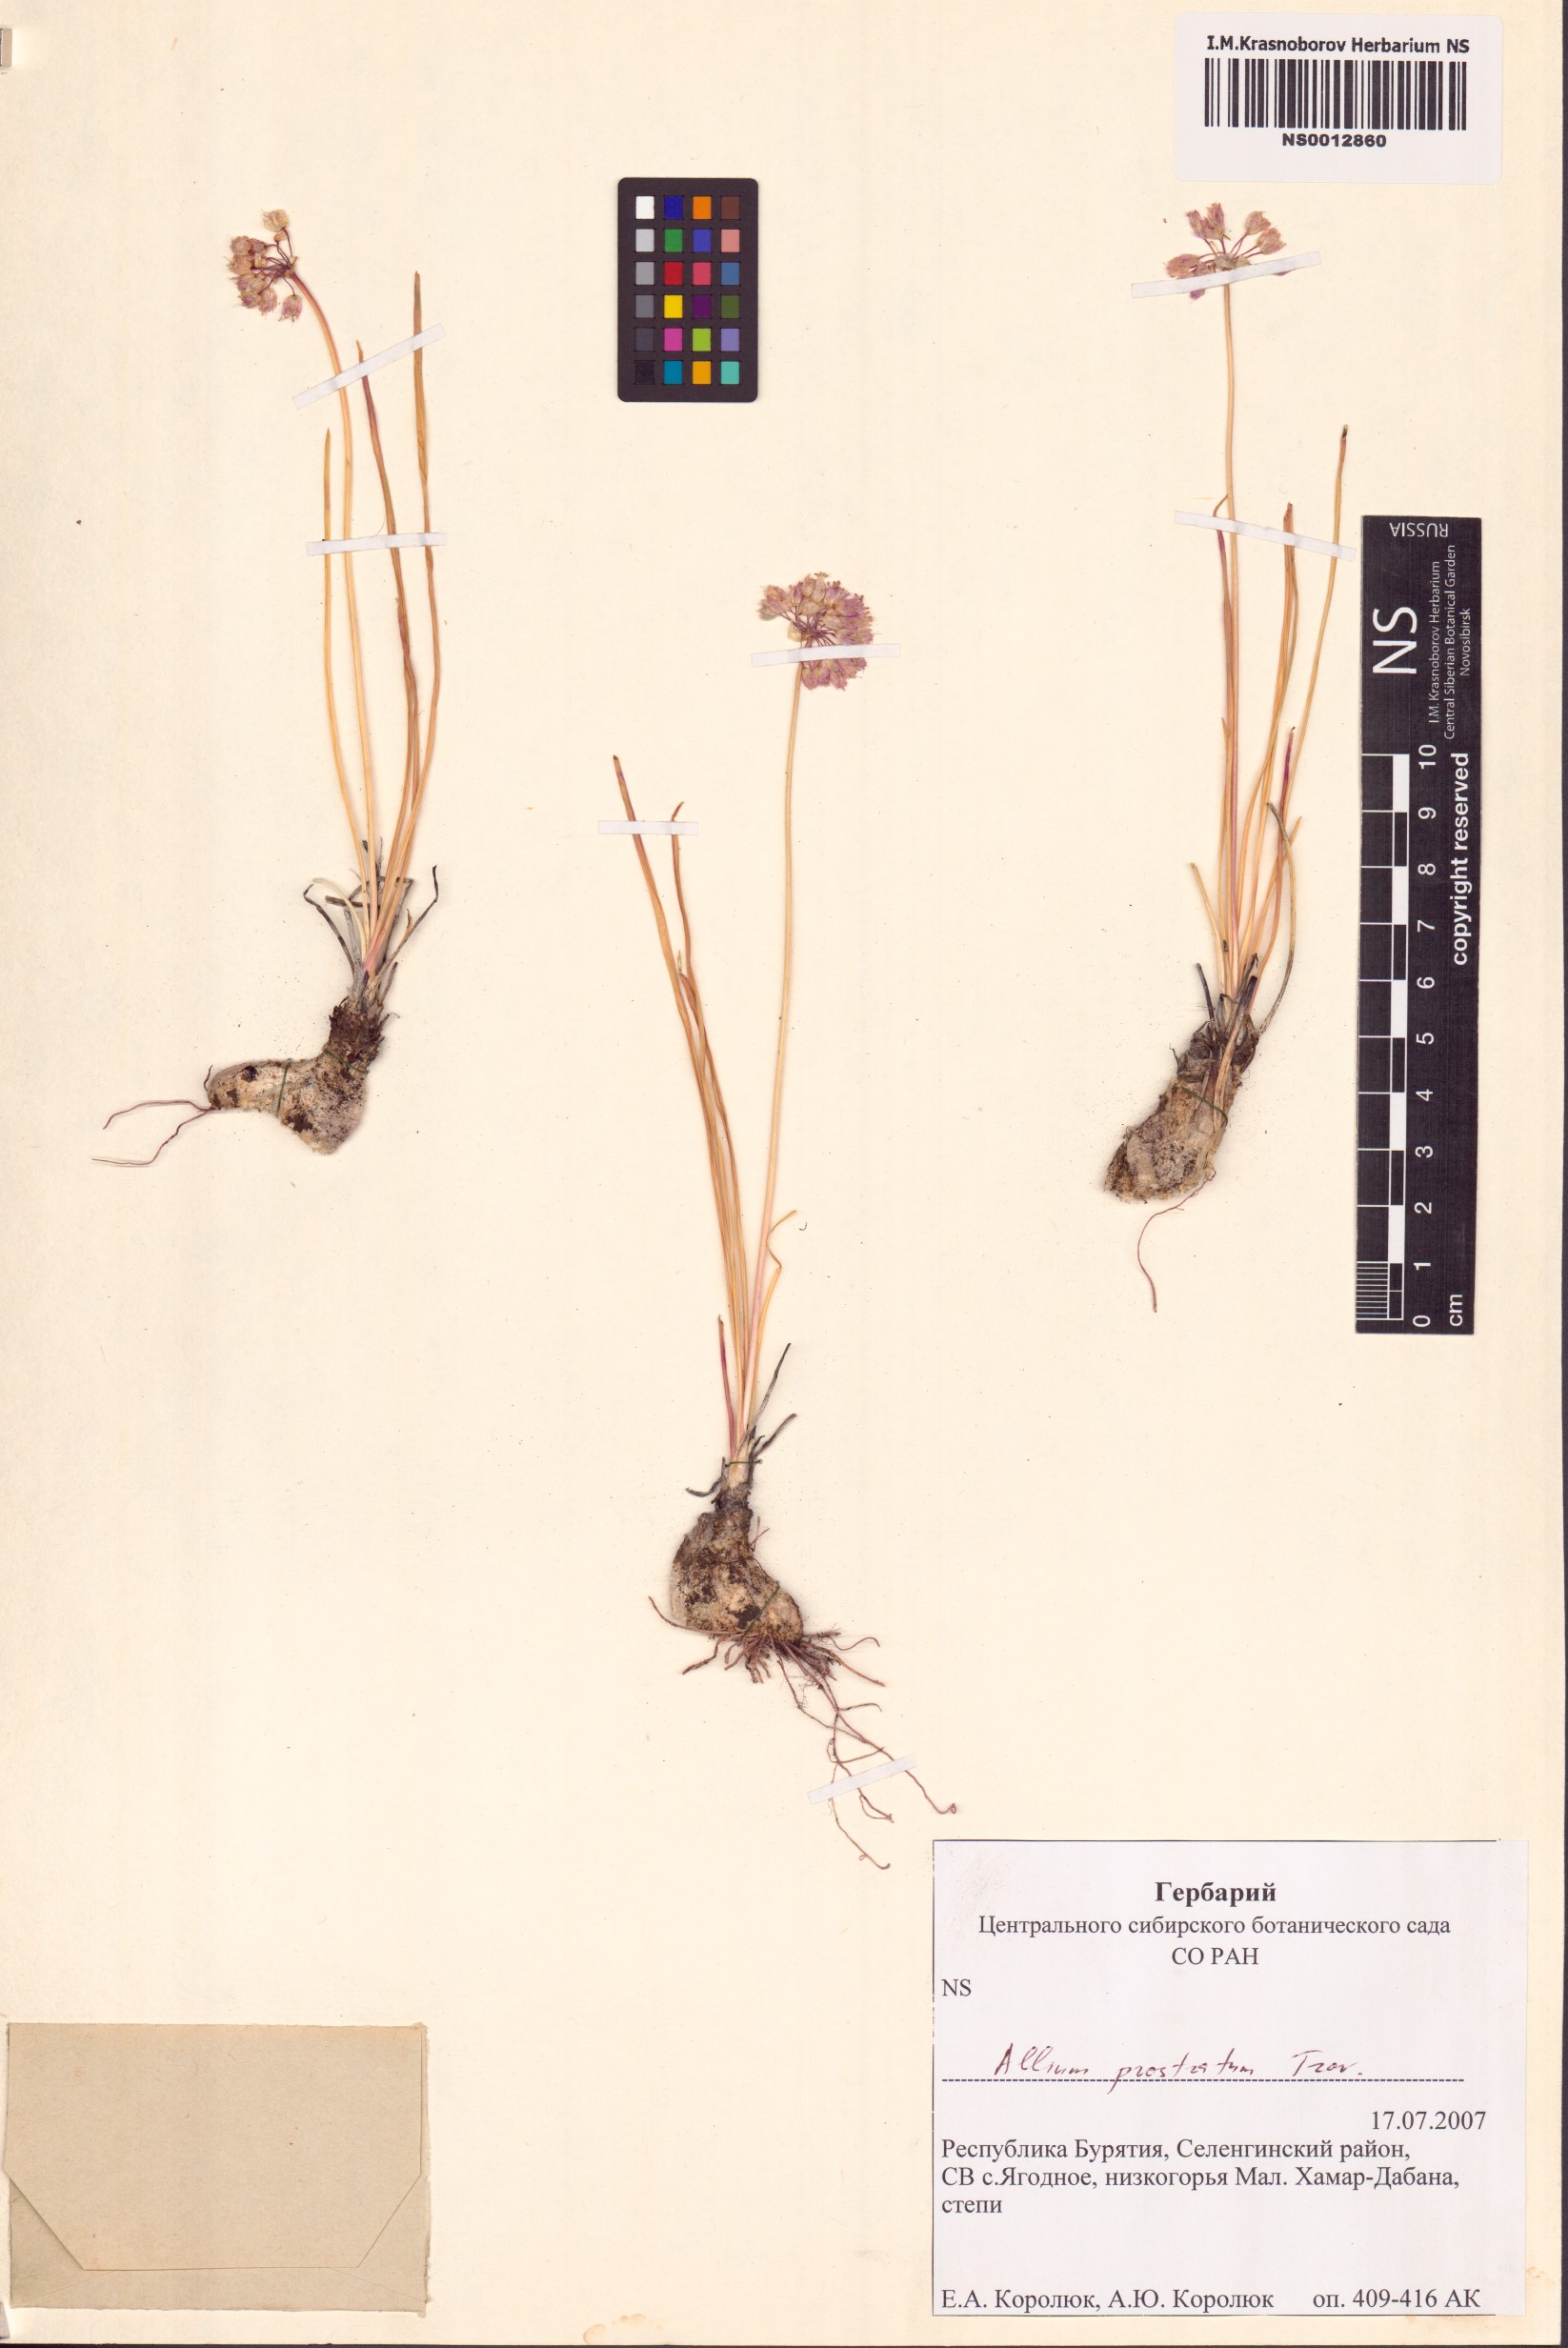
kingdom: Plantae
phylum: Tracheophyta
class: Liliopsida
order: Asparagales
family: Amaryllidaceae
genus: Allium
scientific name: Allium prostratum
